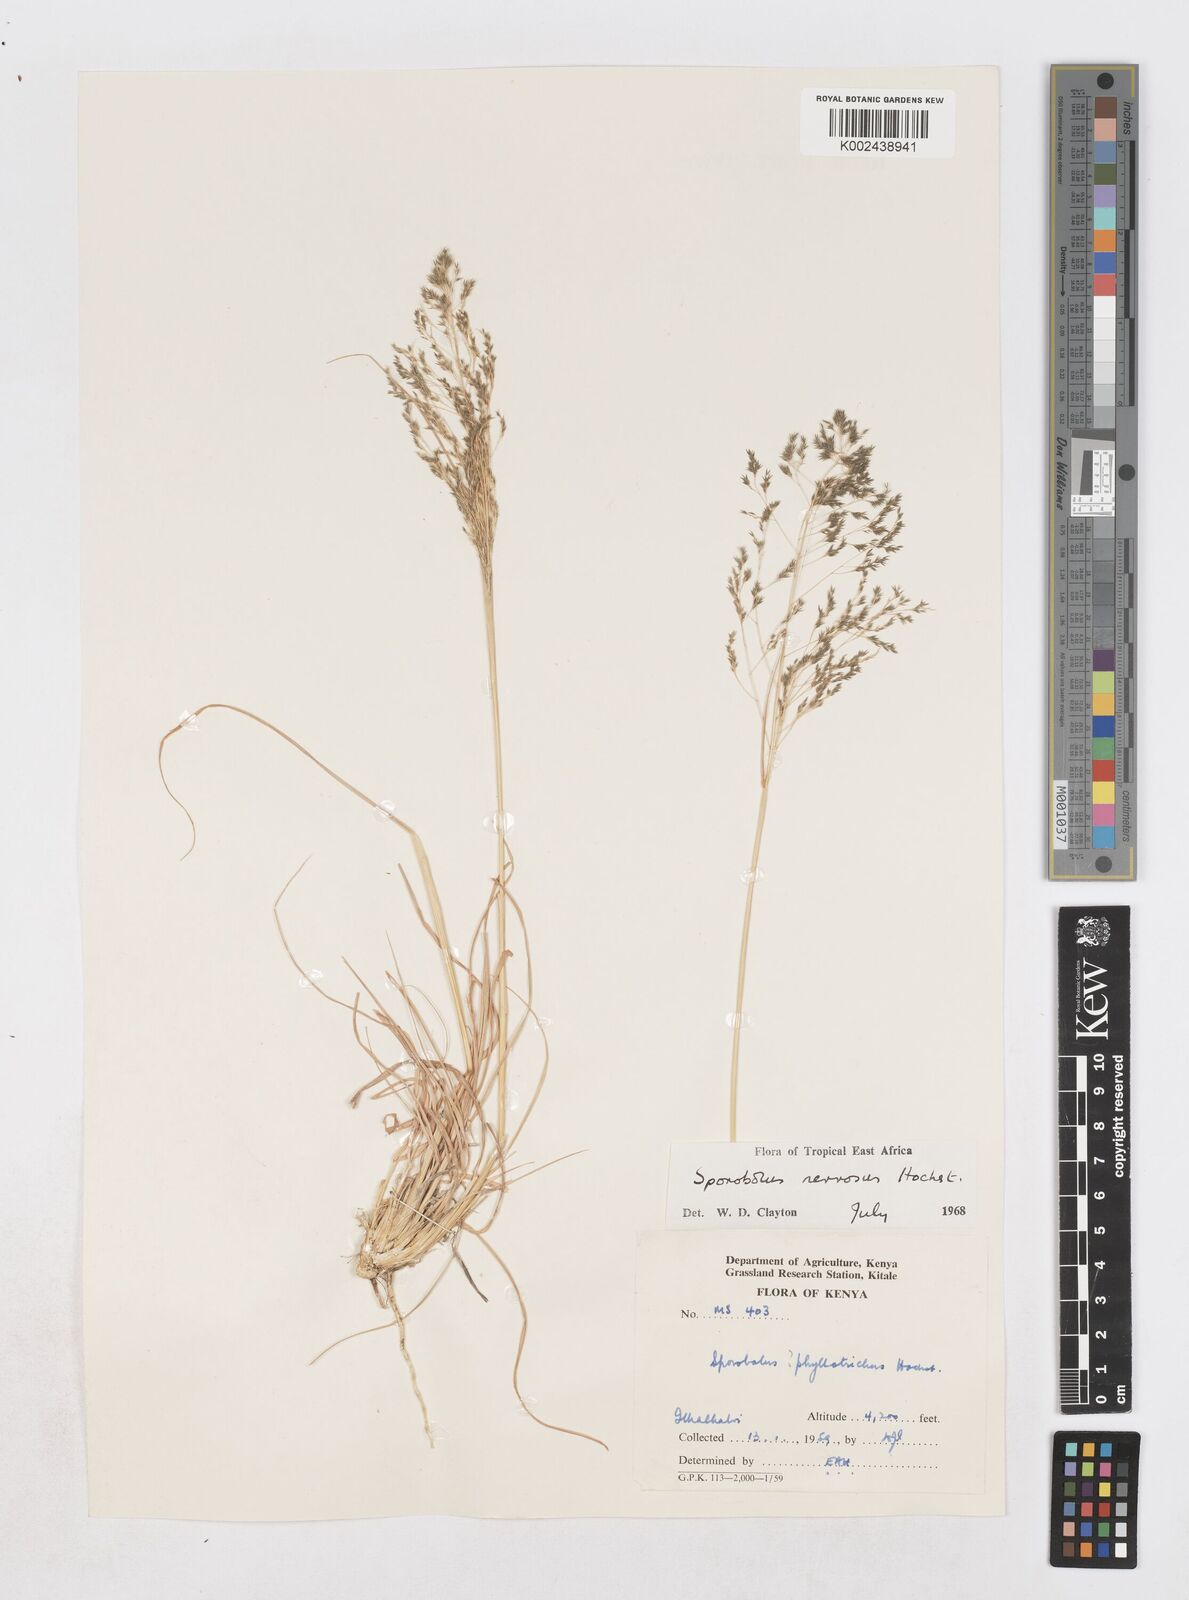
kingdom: Plantae
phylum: Tracheophyta
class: Liliopsida
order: Poales
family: Poaceae
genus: Sporobolus
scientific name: Sporobolus nervosus
